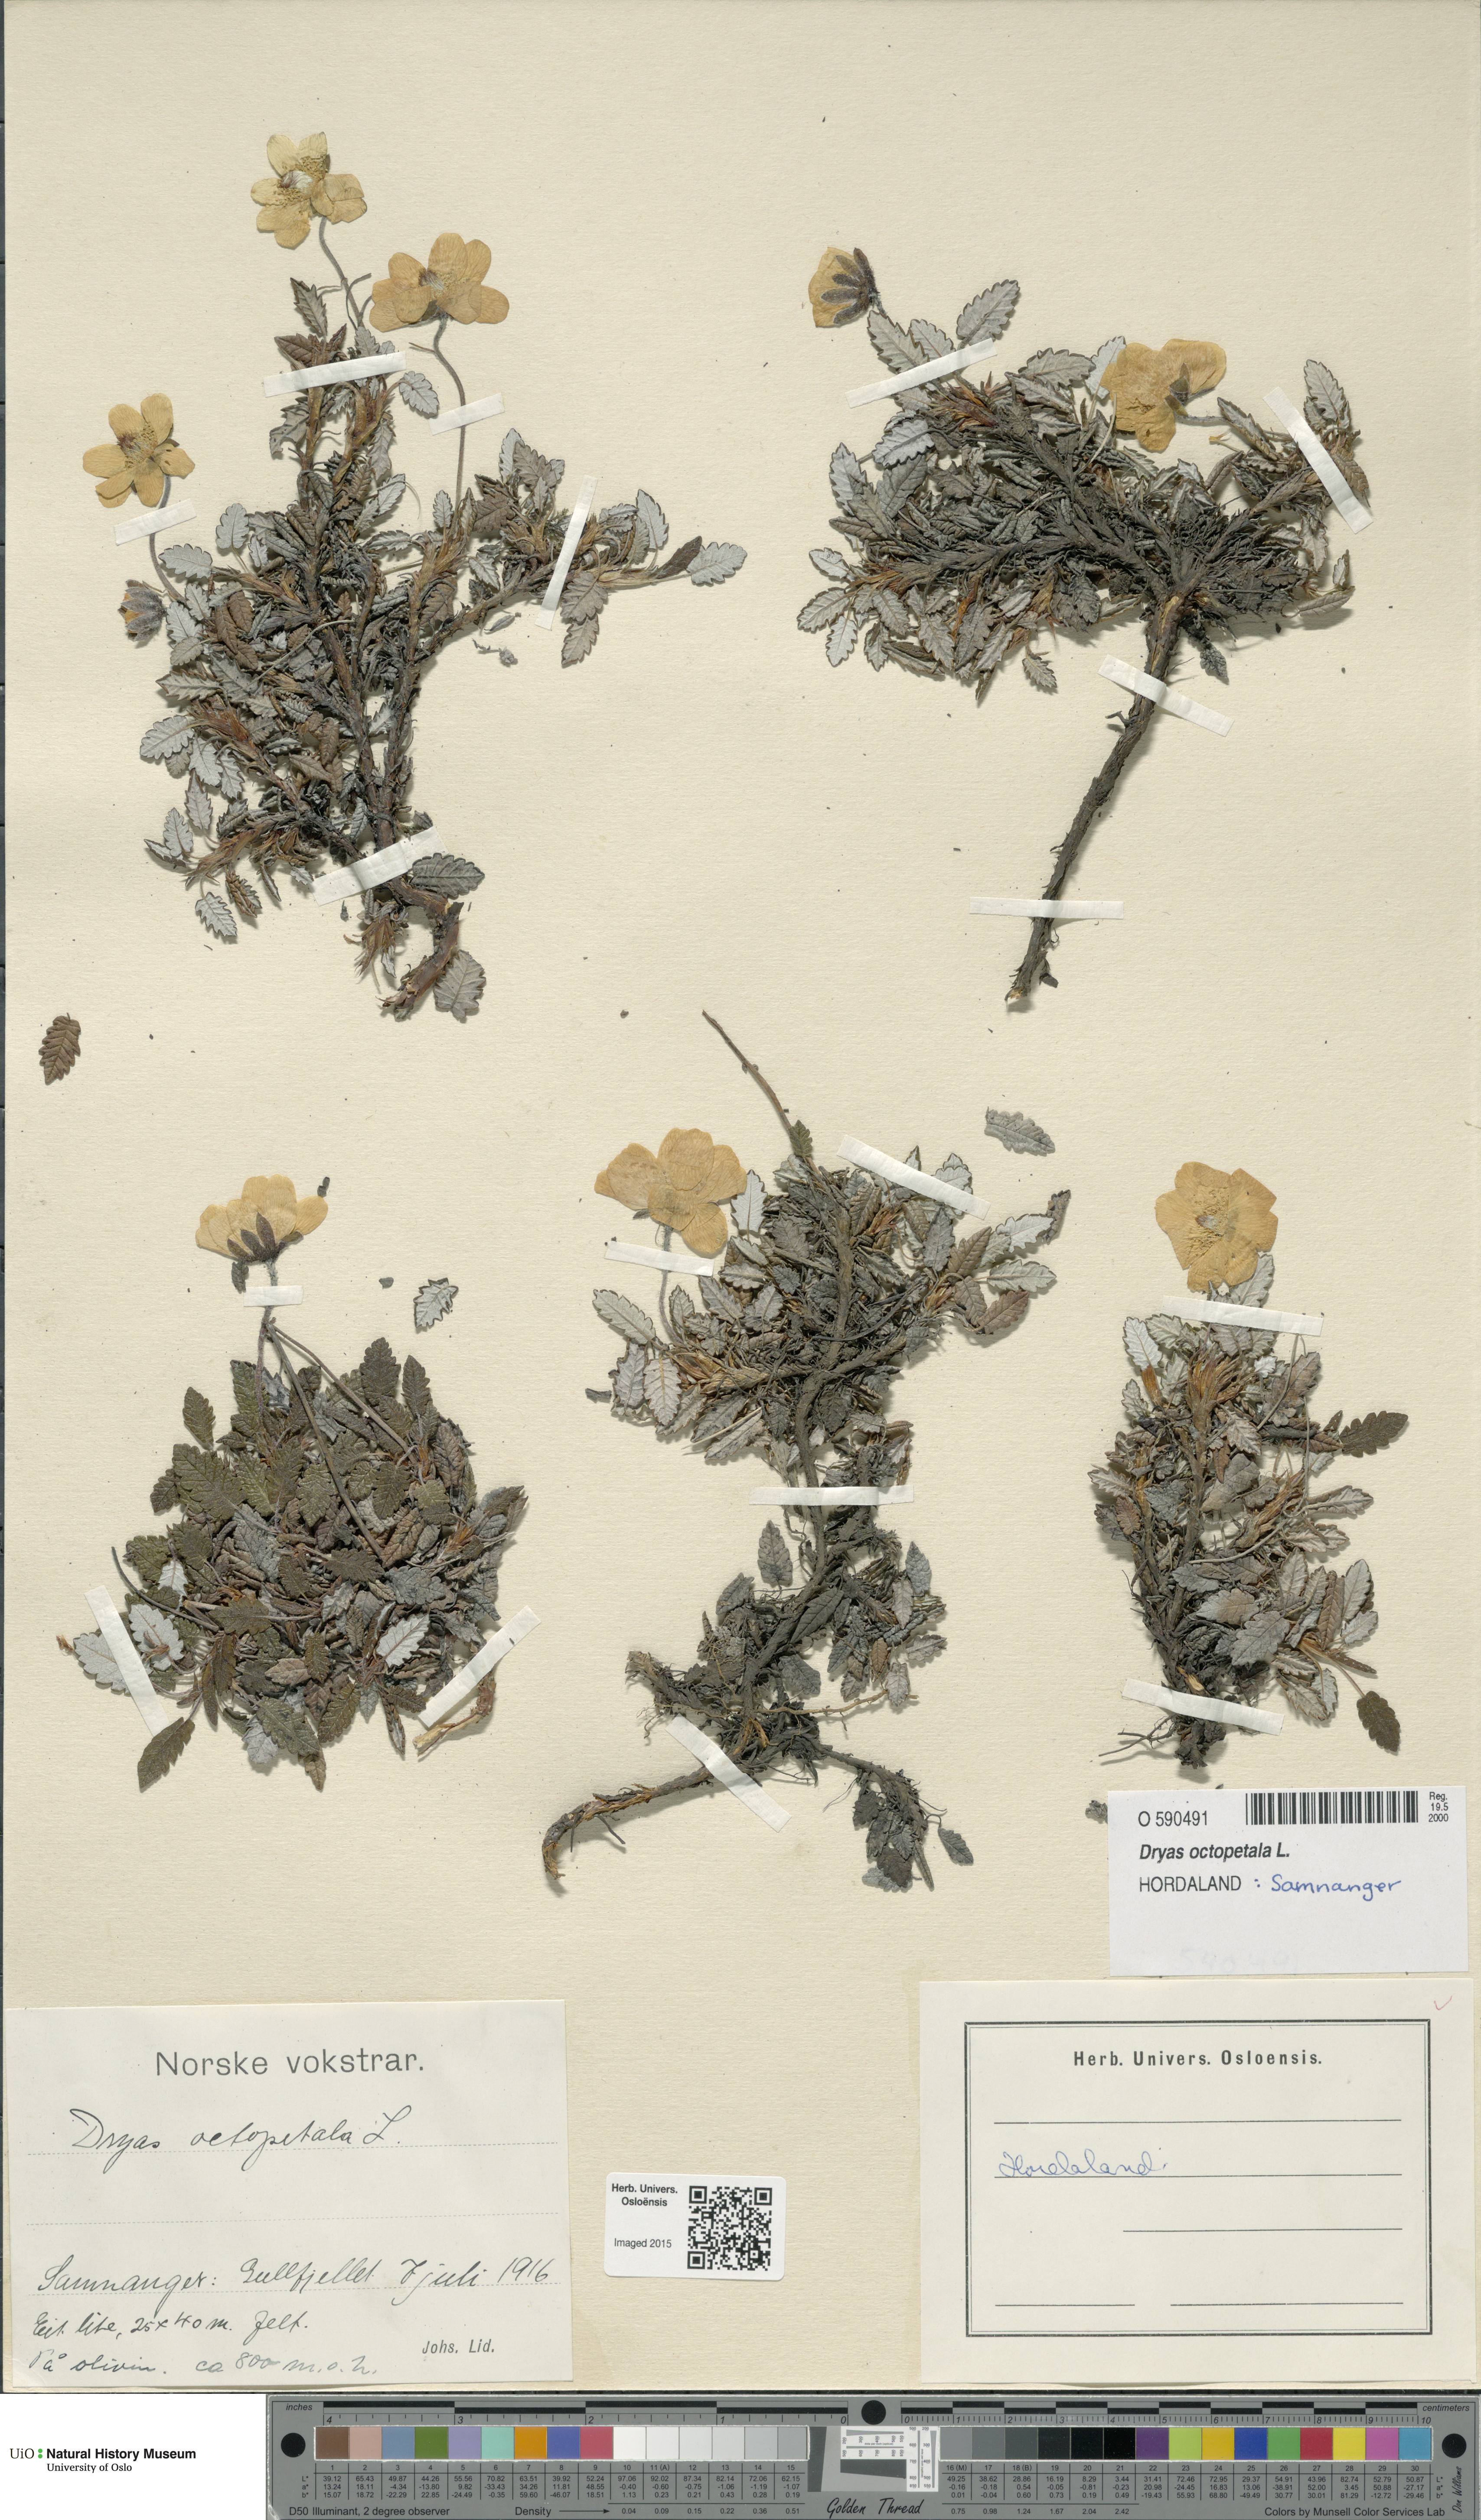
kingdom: Plantae
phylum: Tracheophyta
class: Magnoliopsida
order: Rosales
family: Rosaceae
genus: Dryas
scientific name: Dryas octopetala
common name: Eight-petal mountain-avens
